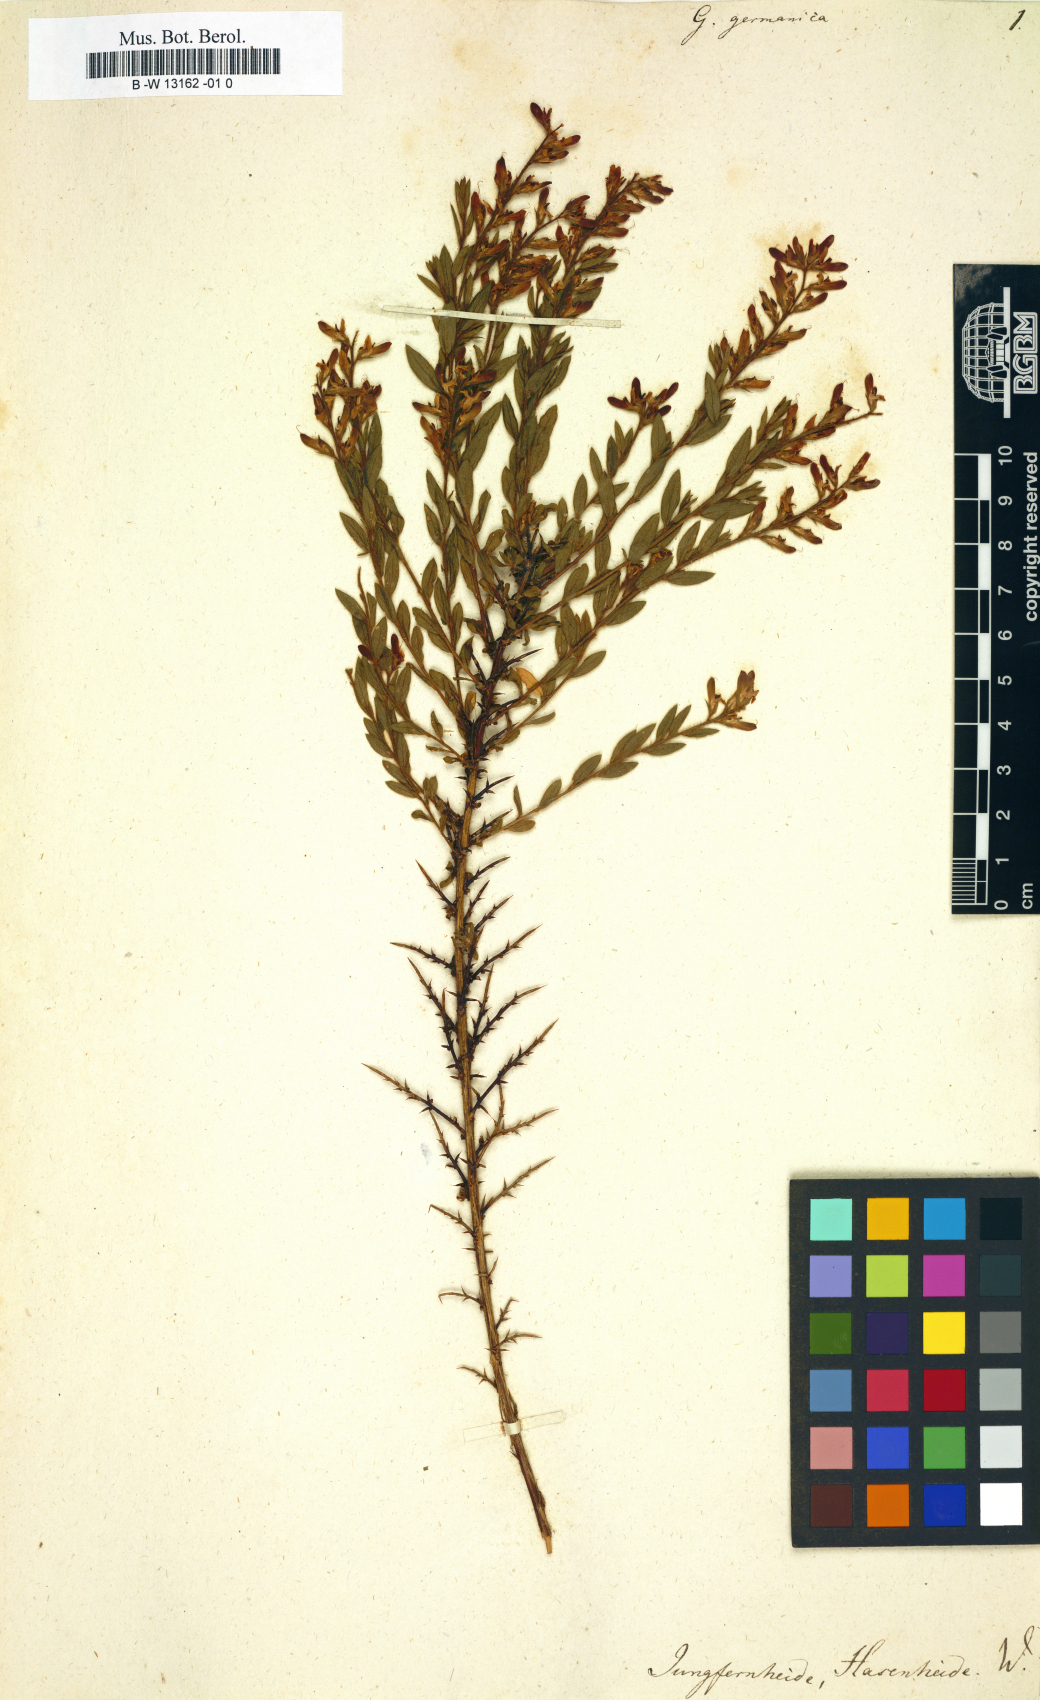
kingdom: Plantae
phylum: Tracheophyta
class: Magnoliopsida
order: Fabales
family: Fabaceae
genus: Genista
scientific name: Genista germanica
